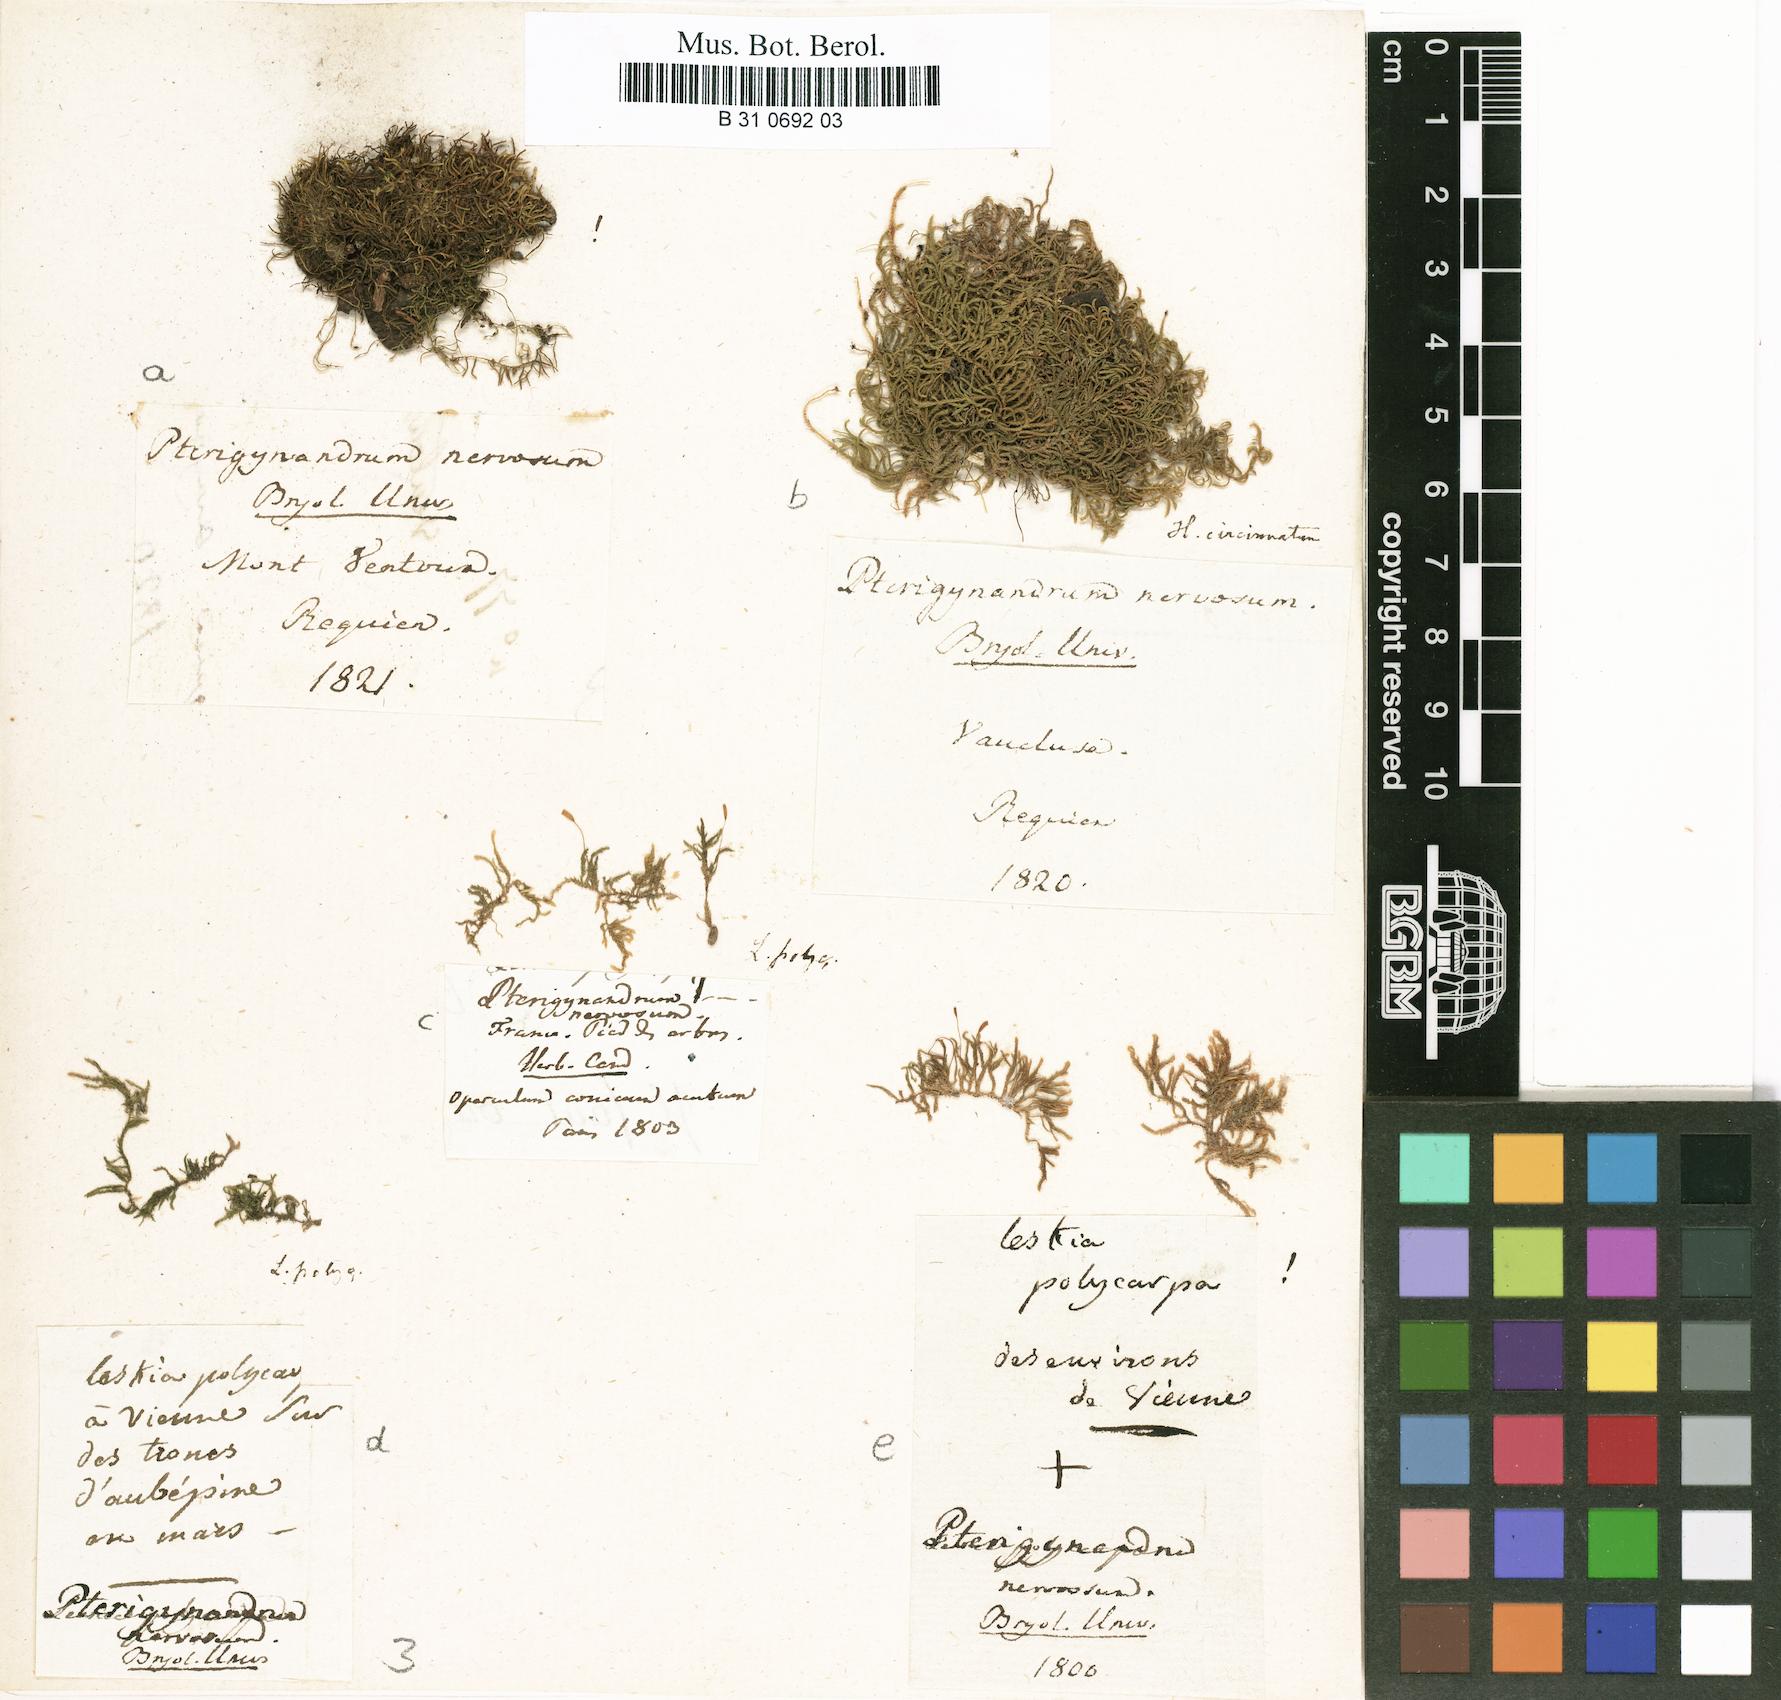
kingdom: Plantae
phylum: Bryophyta
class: Bryopsida
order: Hypnales
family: Pseudoleskeellaceae
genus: Pseudoleskeella
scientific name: Pseudoleskeella nervosa
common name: Nerved leske's moss
